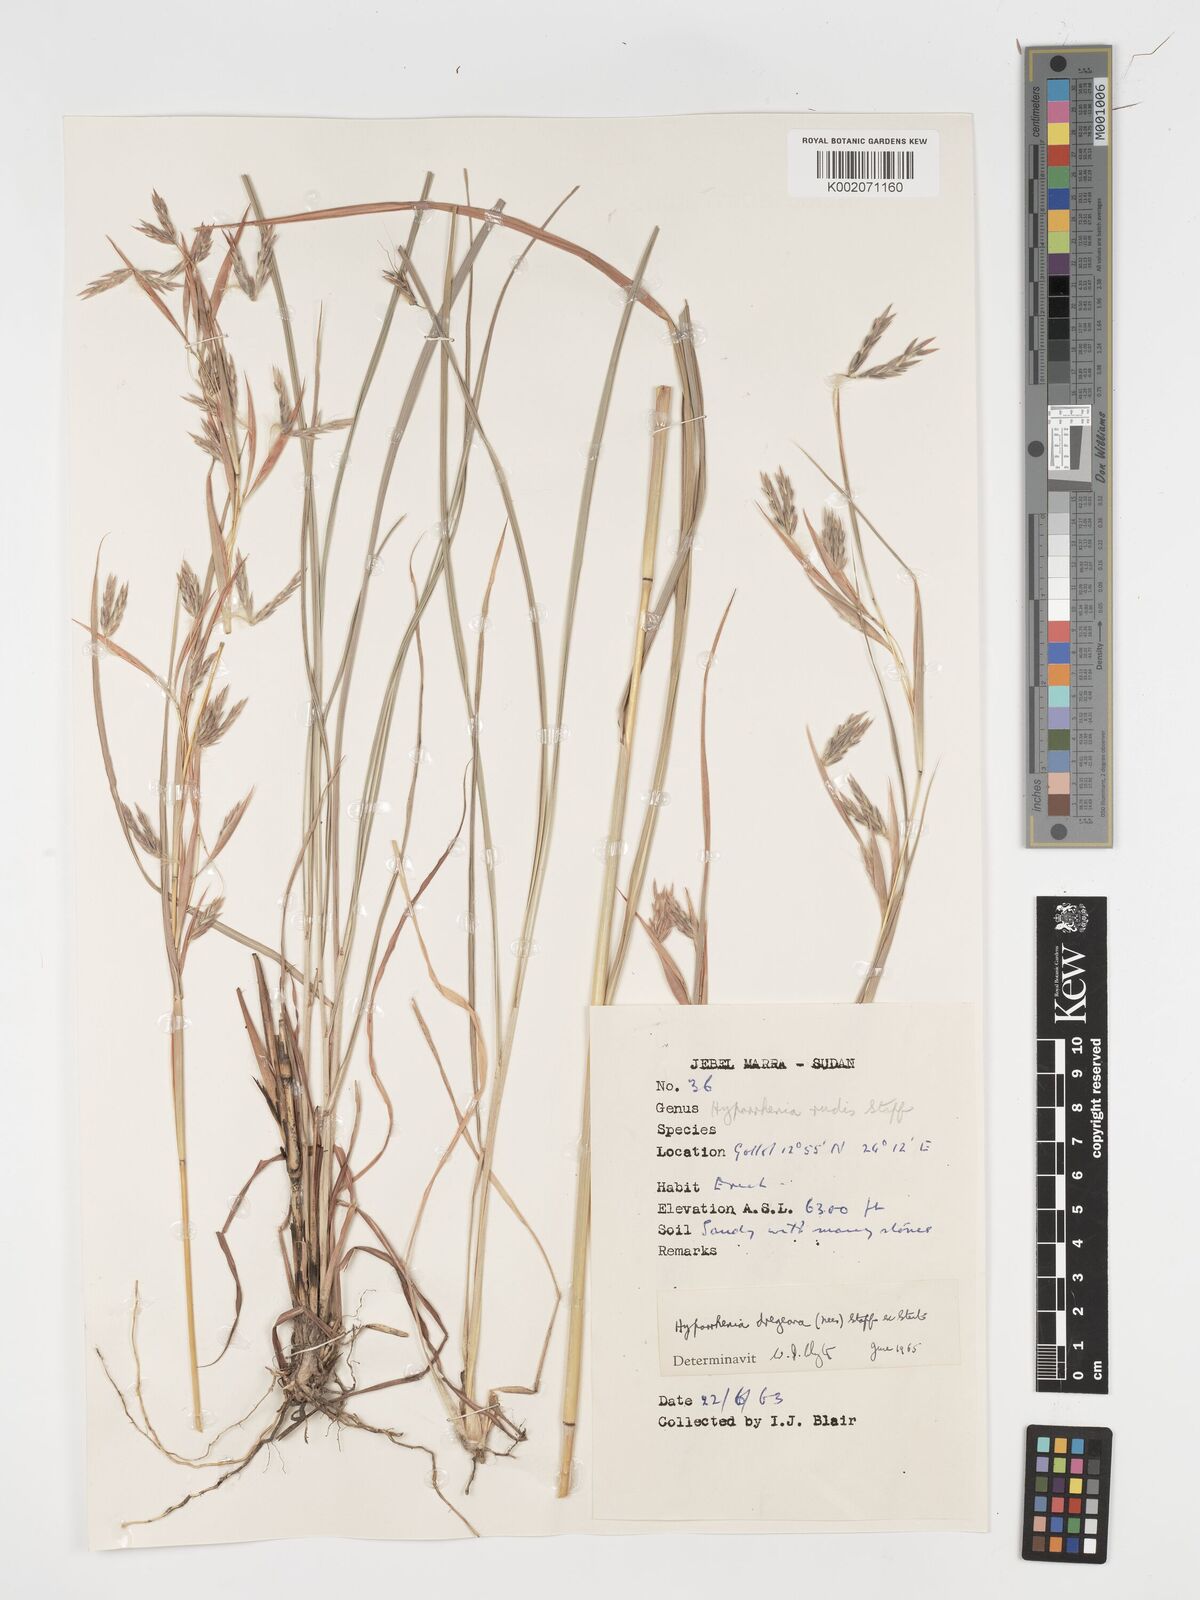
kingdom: Plantae
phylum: Tracheophyta
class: Liliopsida
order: Poales
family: Poaceae
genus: Hyparrhenia
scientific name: Hyparrhenia dregeana
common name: Silky thatching grass
